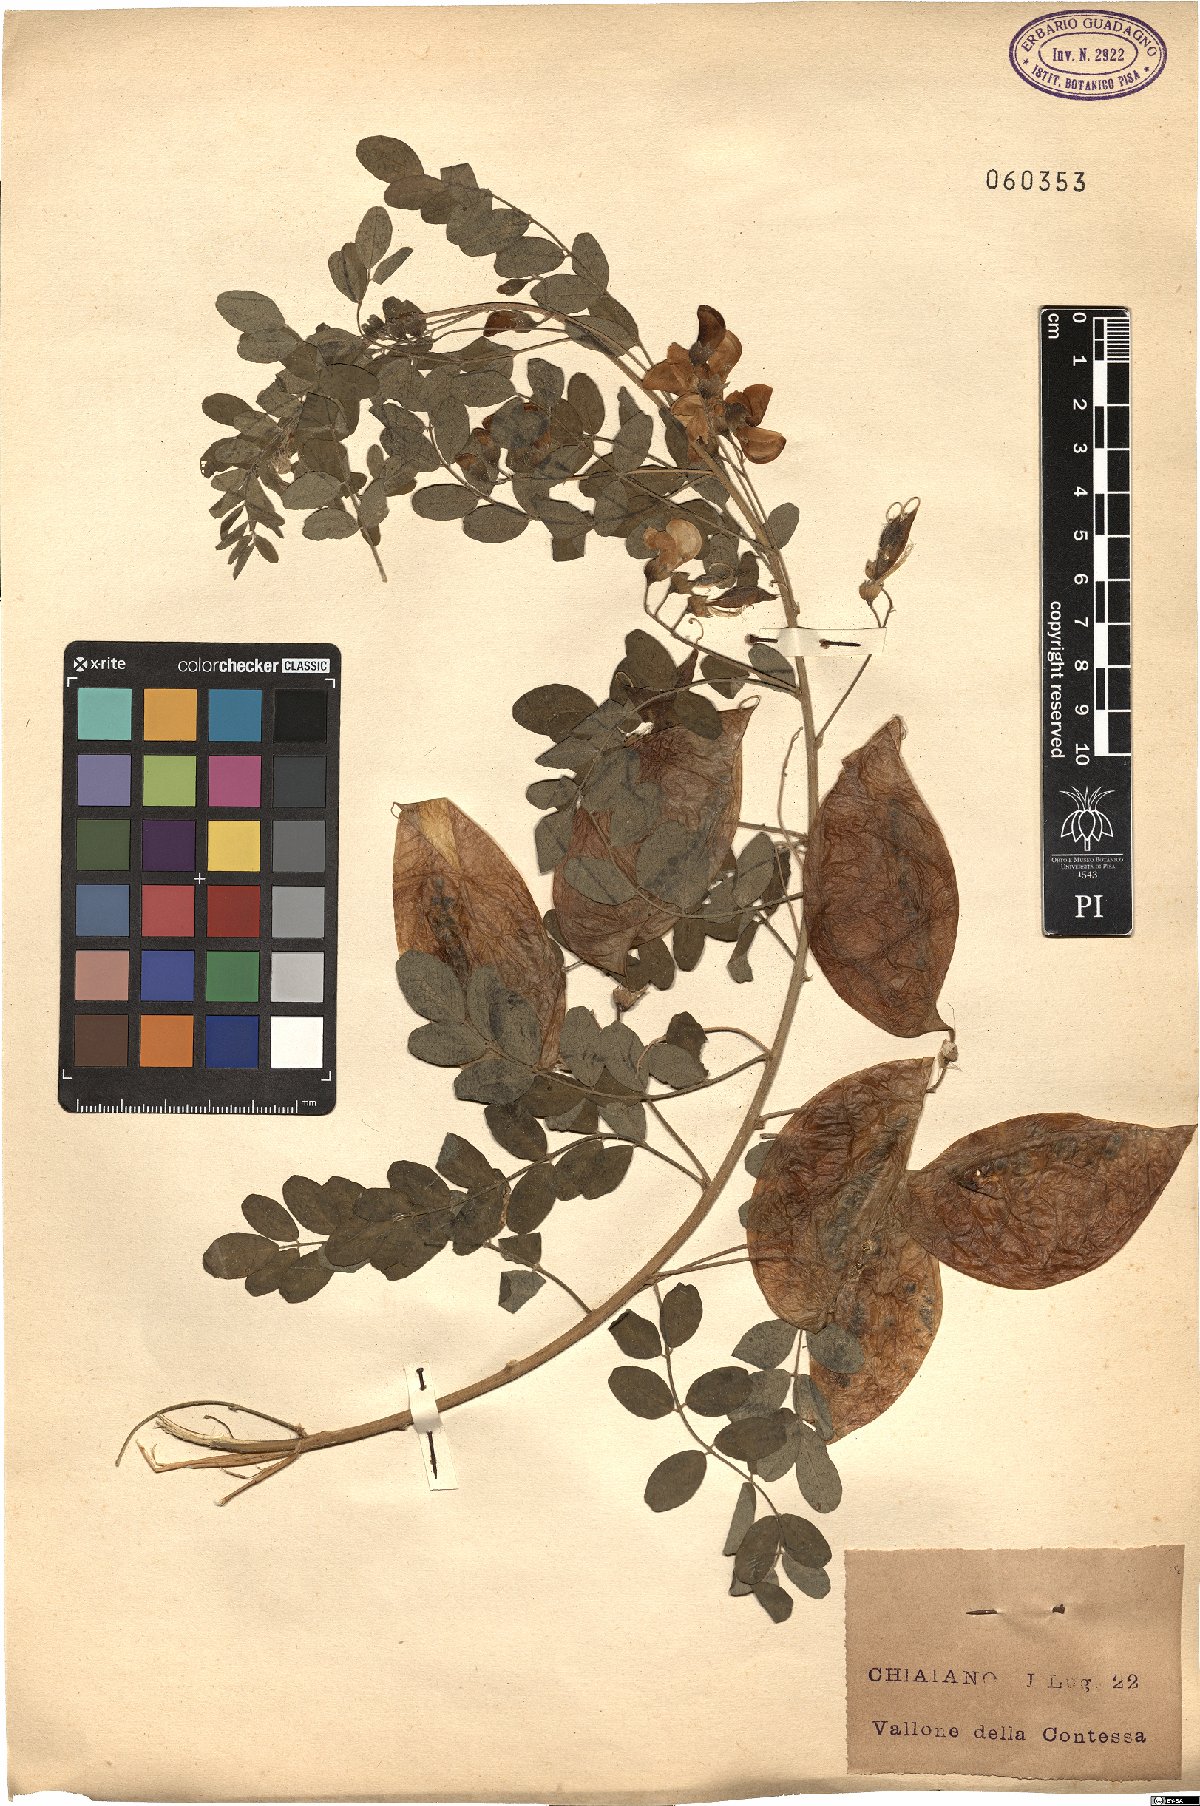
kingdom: Plantae
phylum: Tracheophyta
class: Magnoliopsida
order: Fabales
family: Fabaceae
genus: Colutea
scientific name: Colutea brevialata
